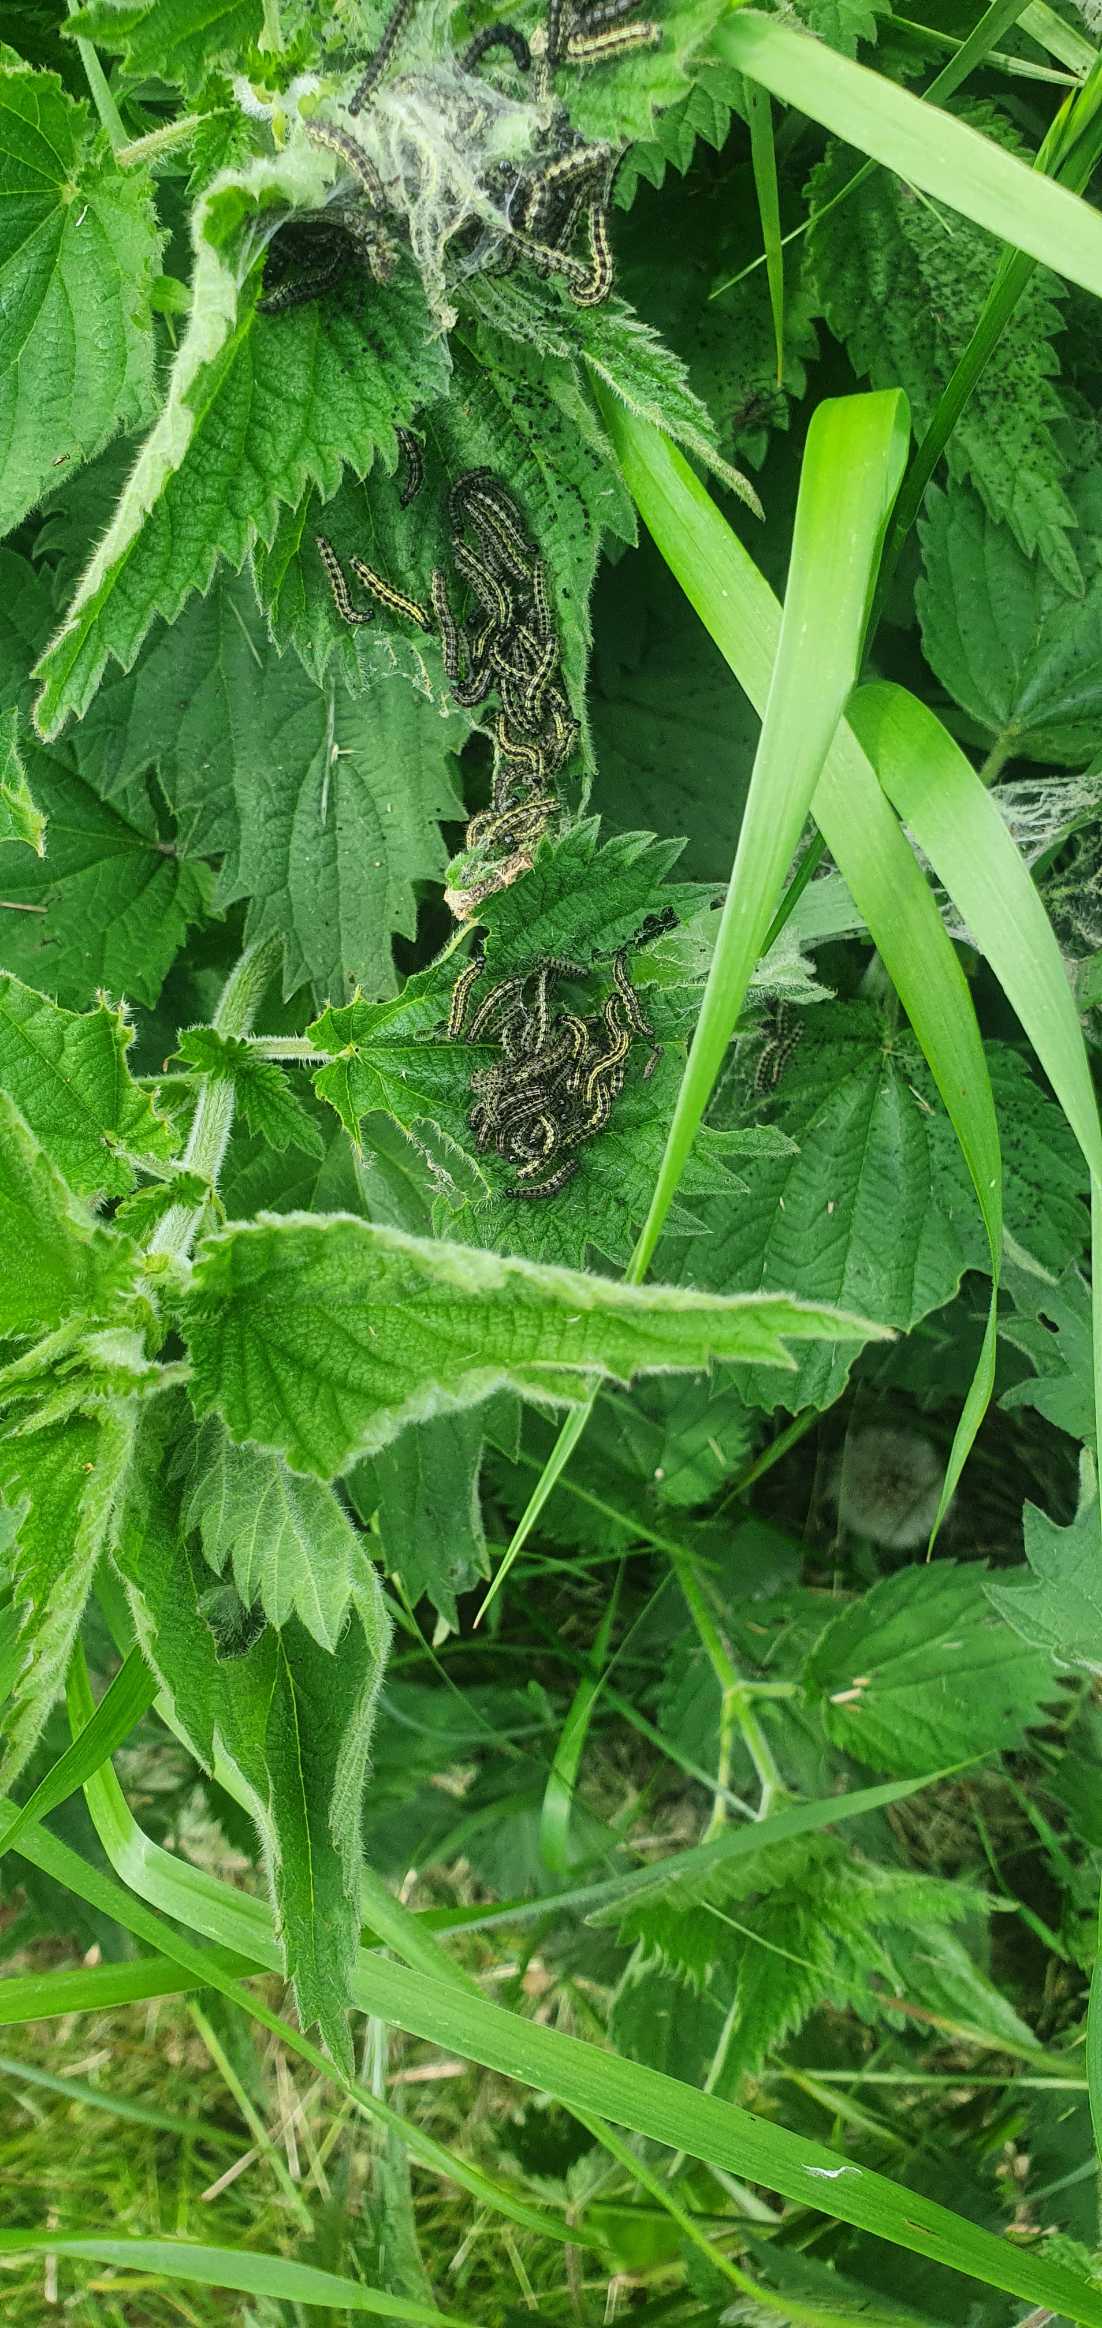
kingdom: Animalia
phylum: Arthropoda
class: Insecta
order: Lepidoptera
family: Nymphalidae
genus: Aglais
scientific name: Aglais urticae
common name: Nældens takvinge
